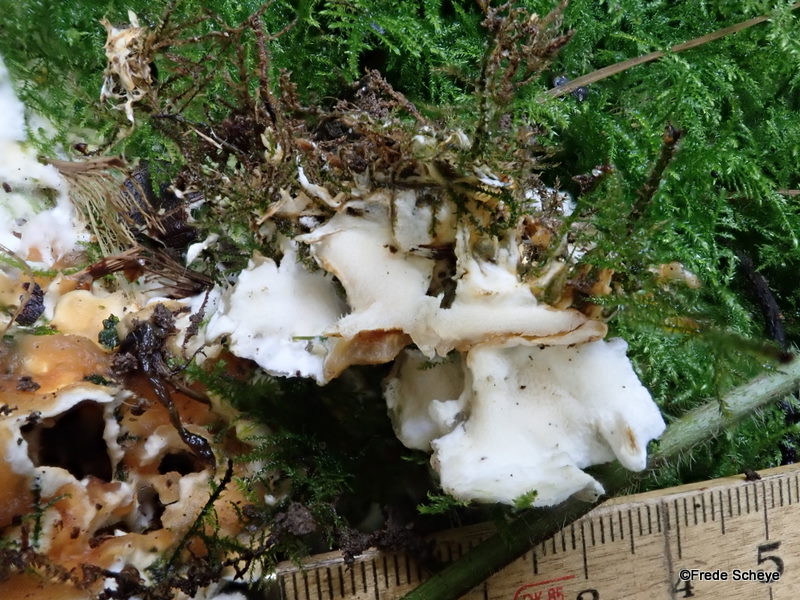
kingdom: Fungi
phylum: Basidiomycota
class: Agaricomycetes
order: Polyporales
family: Steccherinaceae
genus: Loweomyces
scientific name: Loweomyces wynneae
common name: krybende blødporesvamp
